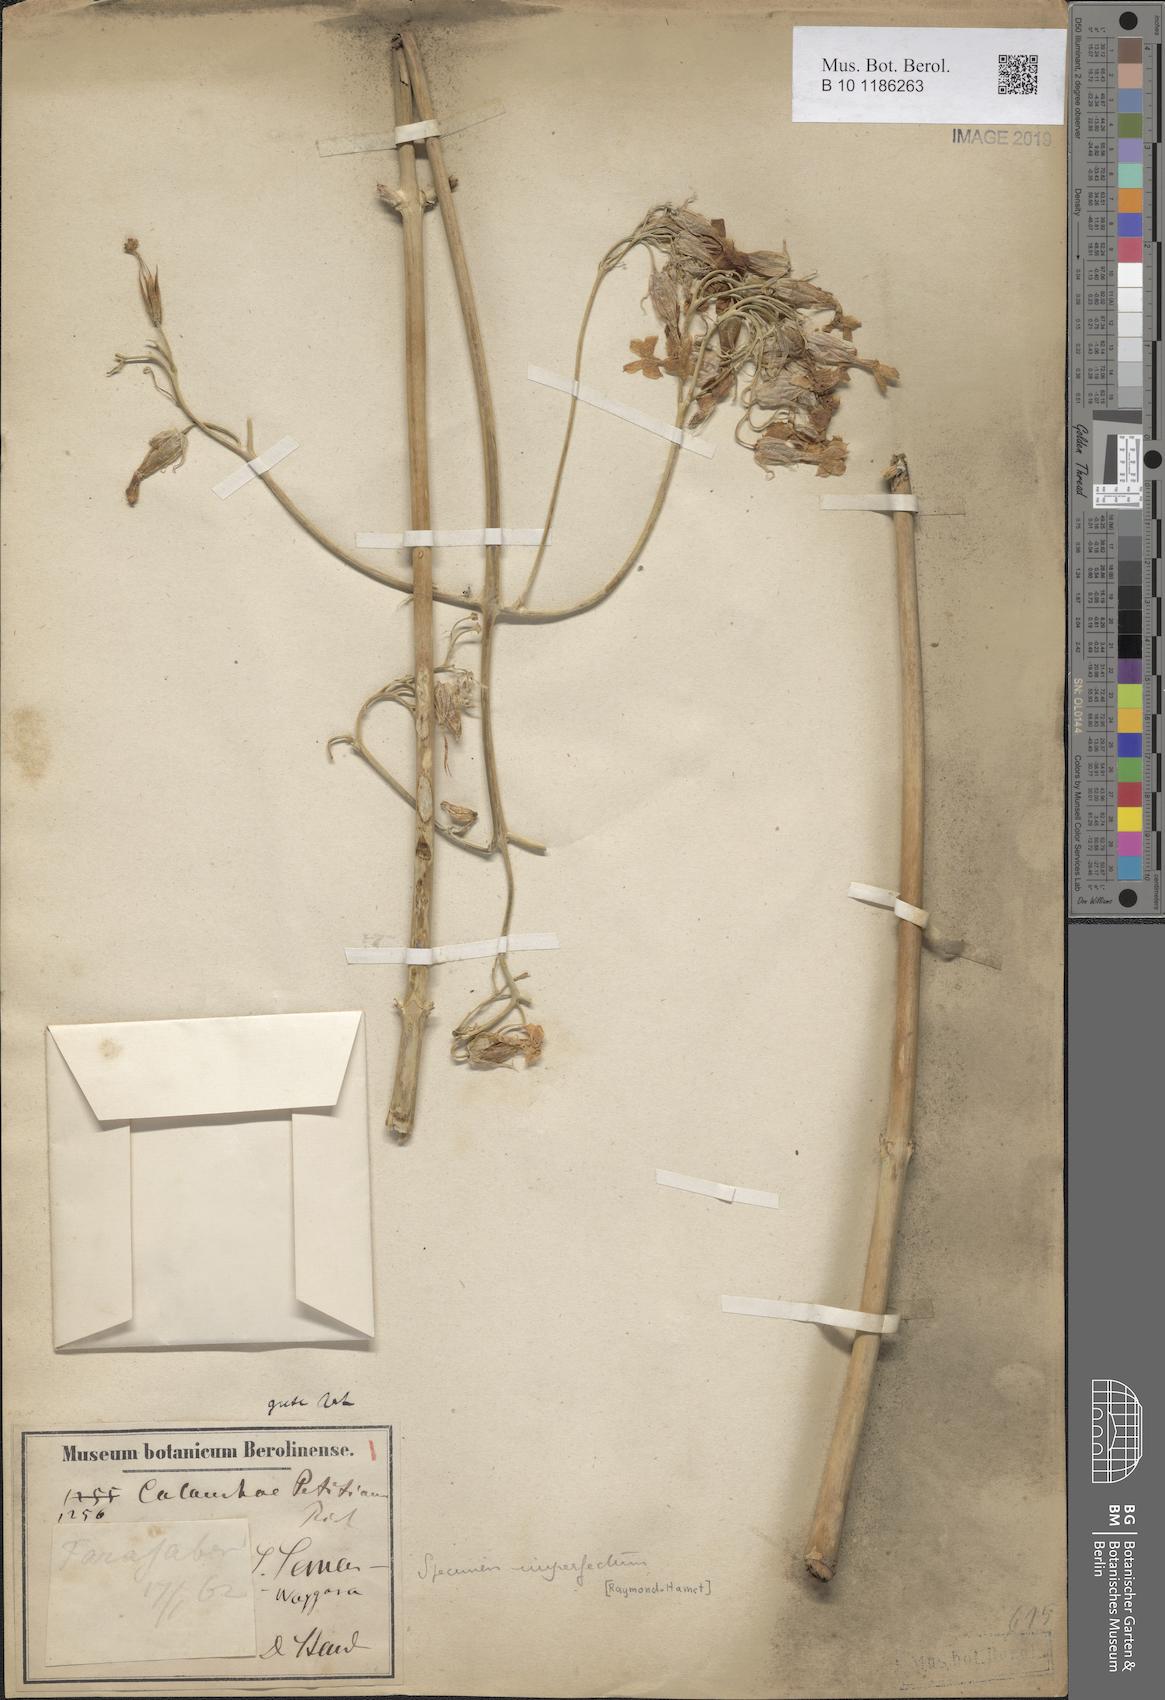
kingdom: Plantae
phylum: Tracheophyta
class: Magnoliopsida
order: Saxifragales
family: Crassulaceae
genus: Kalanchoe
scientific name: Kalanchoe petitiana
